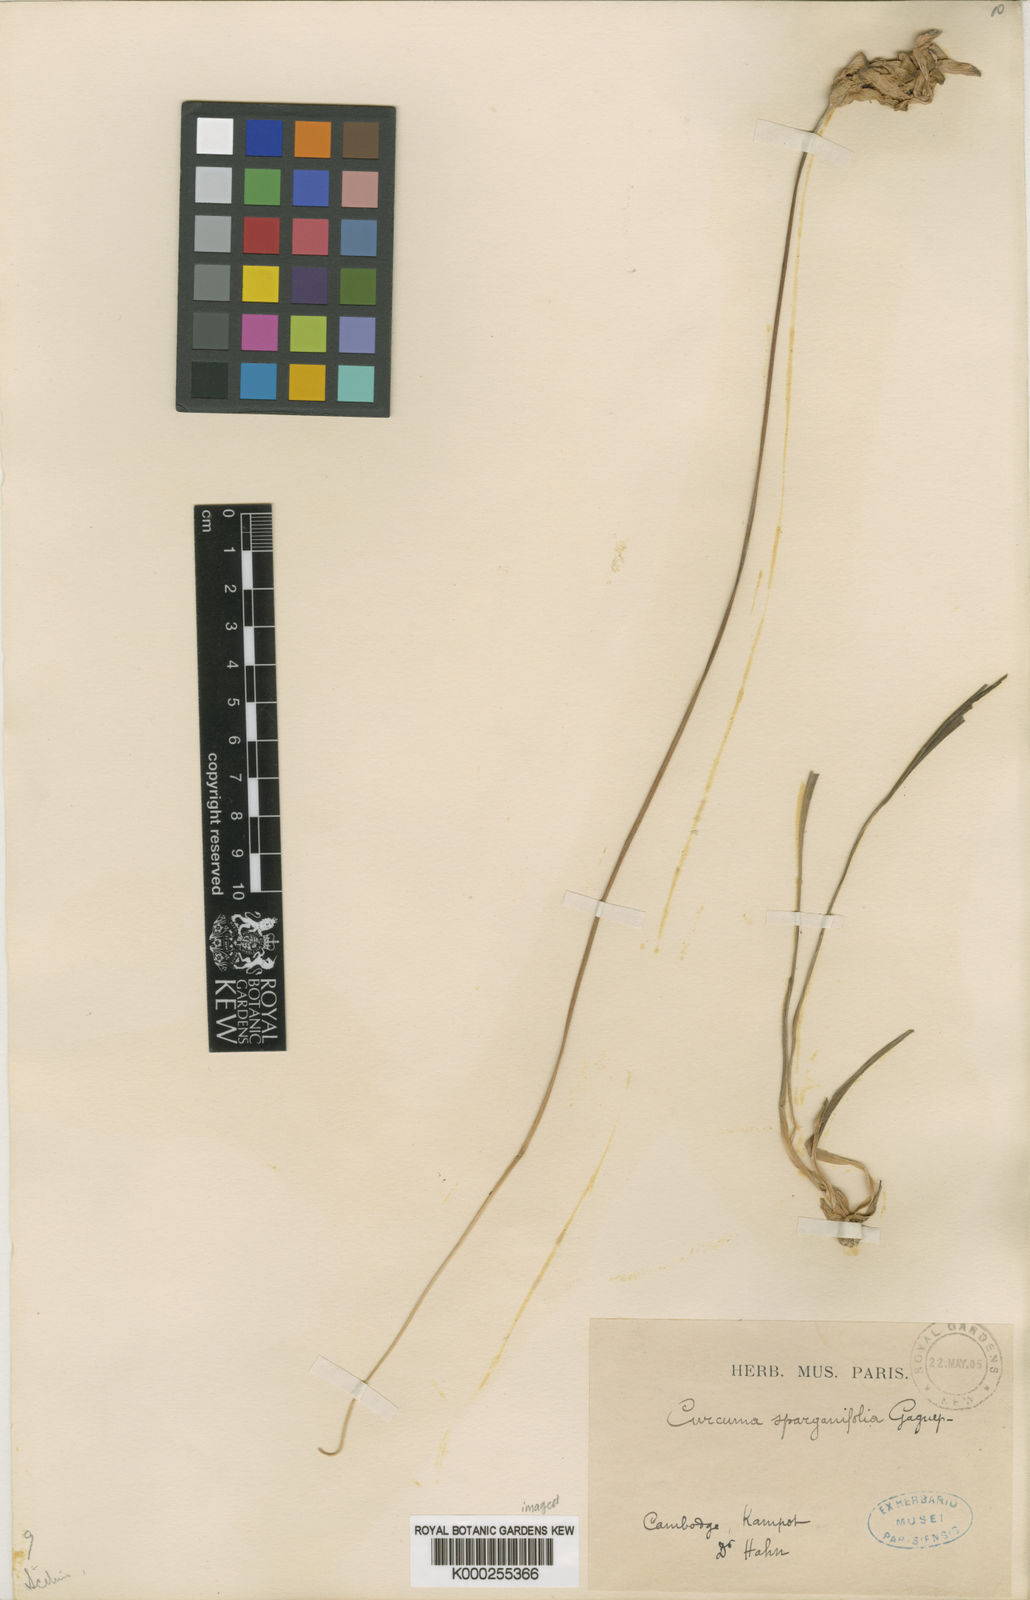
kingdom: Plantae
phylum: Tracheophyta
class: Liliopsida
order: Zingiberales
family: Zingiberaceae
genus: Curcuma
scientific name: Curcuma sparganiifolia
